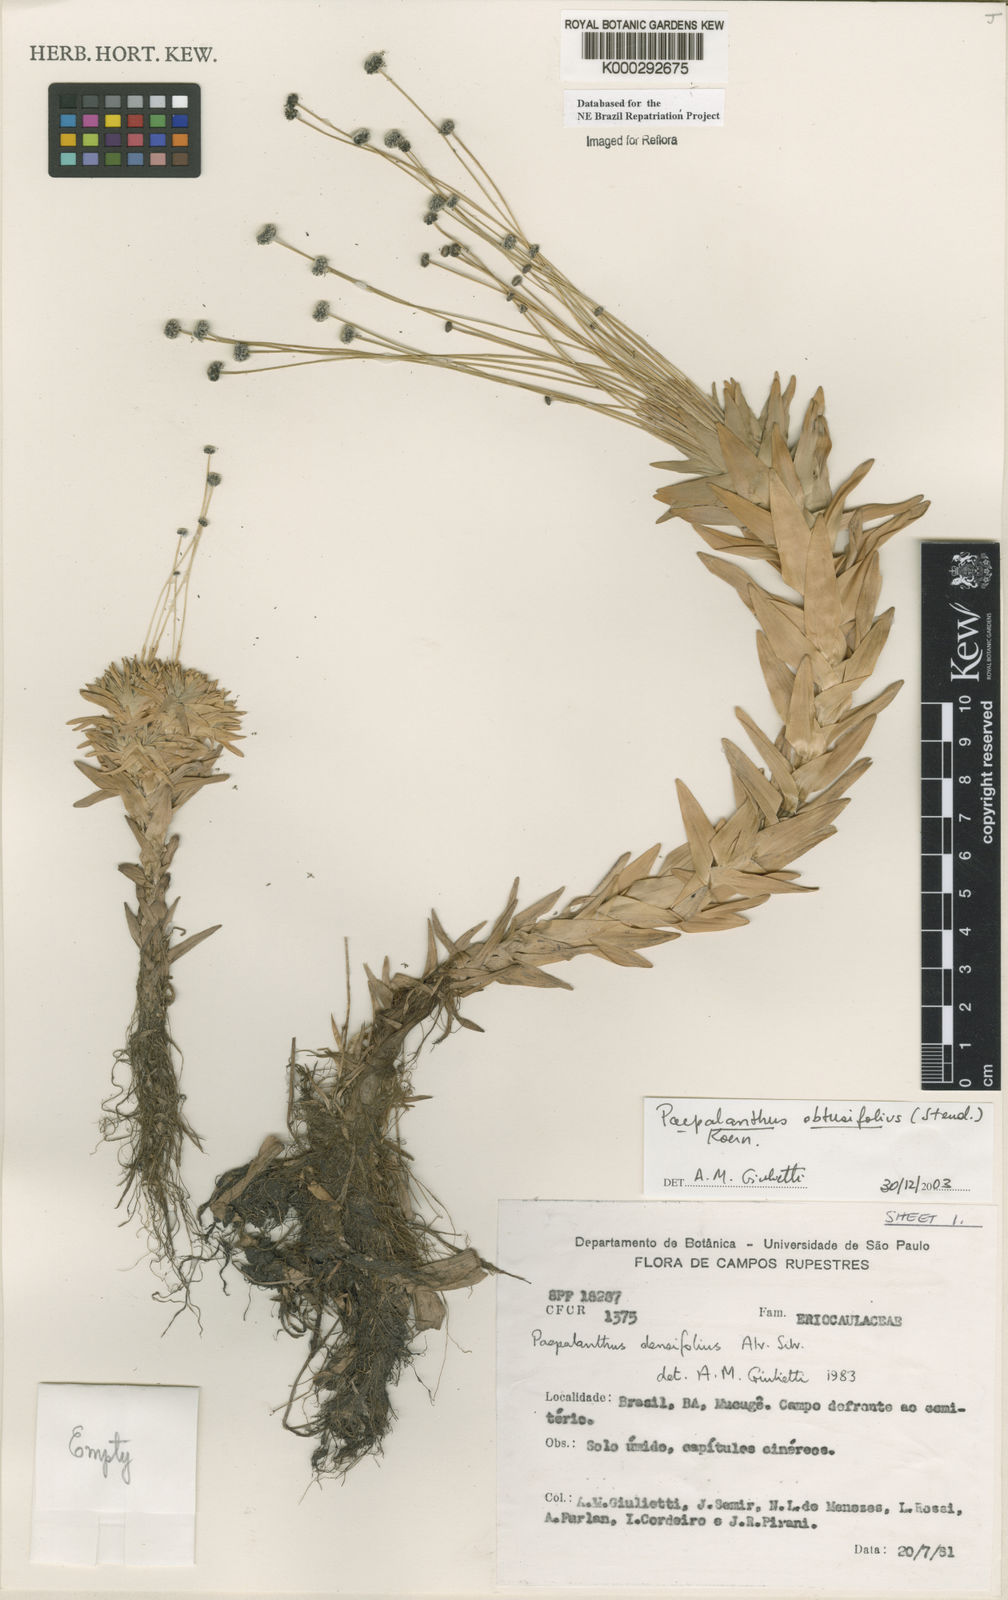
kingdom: Plantae
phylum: Tracheophyta
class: Liliopsida
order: Poales
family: Eriocaulaceae
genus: Paepalanthus
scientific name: Paepalanthus
